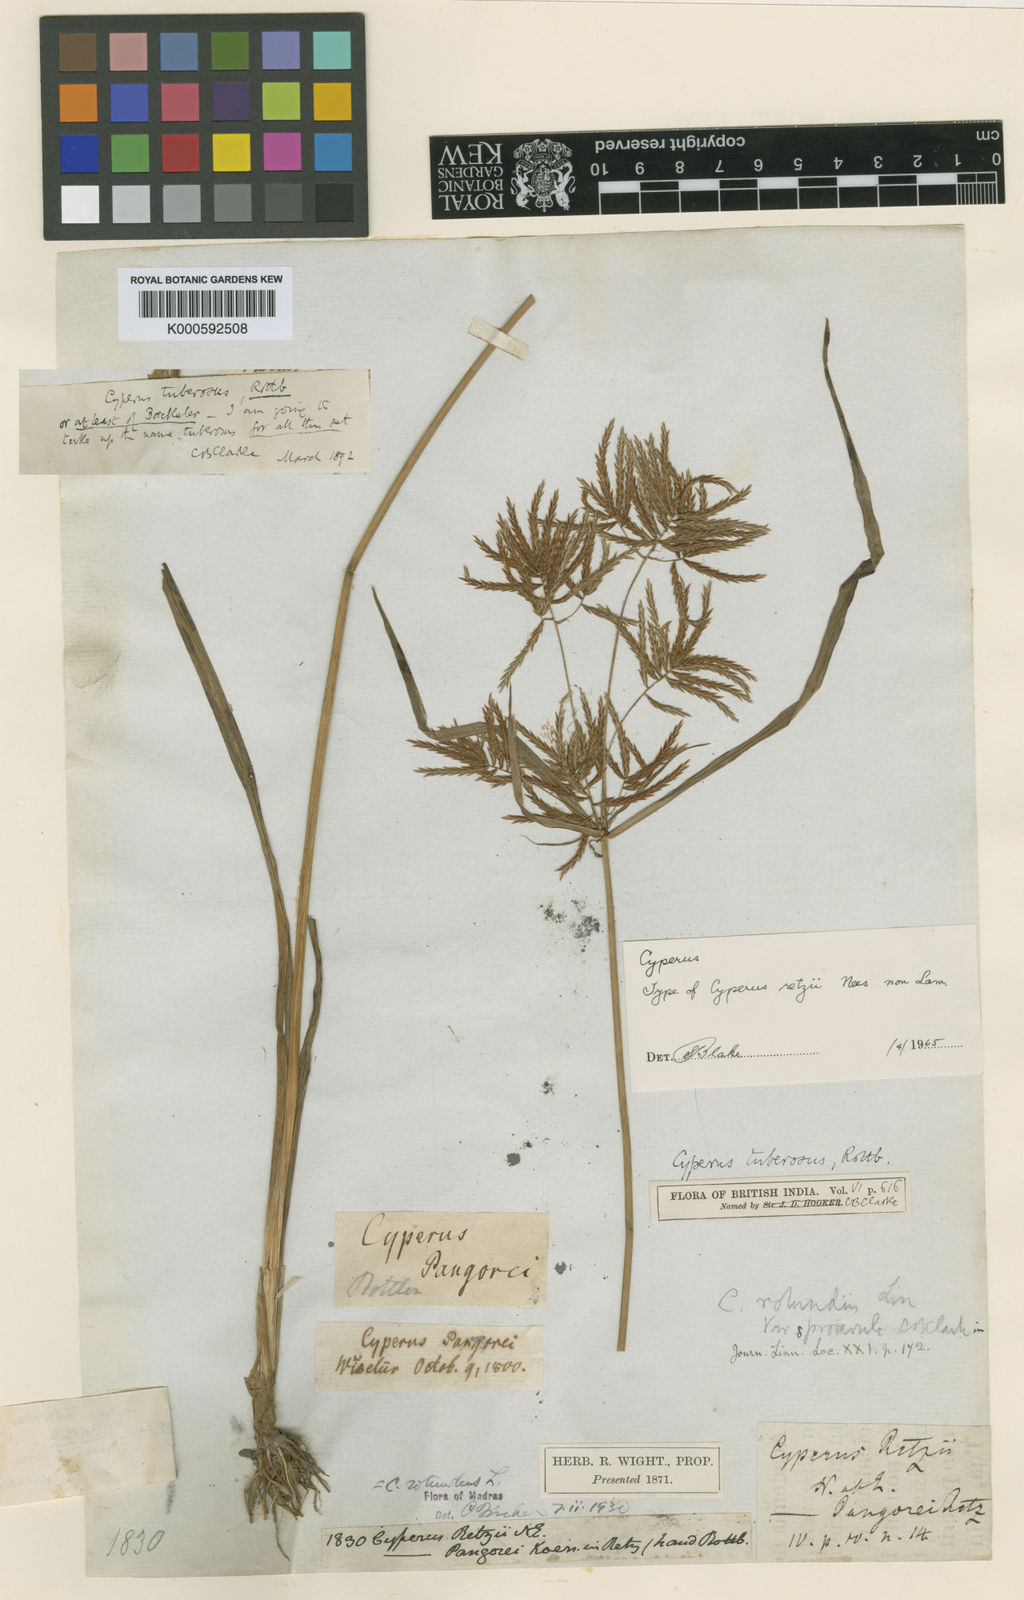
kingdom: Plantae
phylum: Tracheophyta
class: Liliopsida
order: Poales
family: Cyperaceae
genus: Cyperus
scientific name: Cyperus rotundus
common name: Nutgrass
